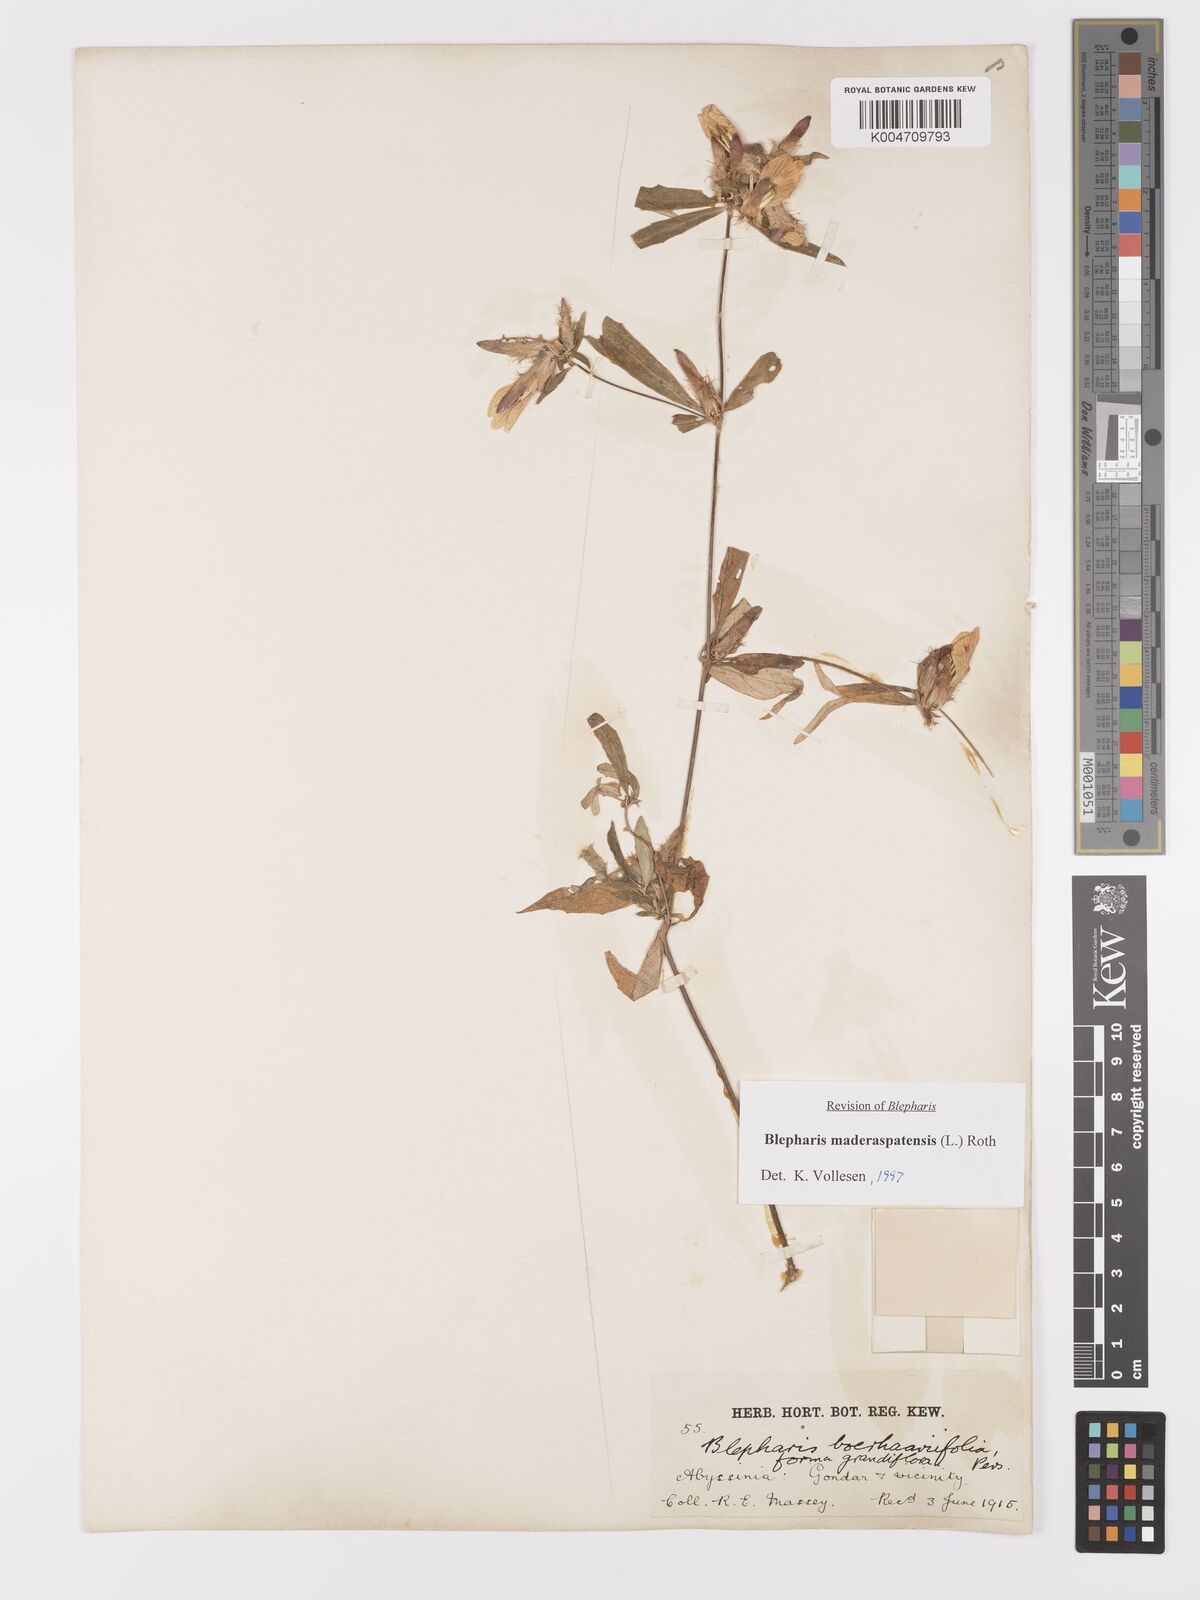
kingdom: Plantae
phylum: Tracheophyta
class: Magnoliopsida
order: Lamiales
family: Acanthaceae
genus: Blepharis
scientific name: Blepharis maderaspatensis
